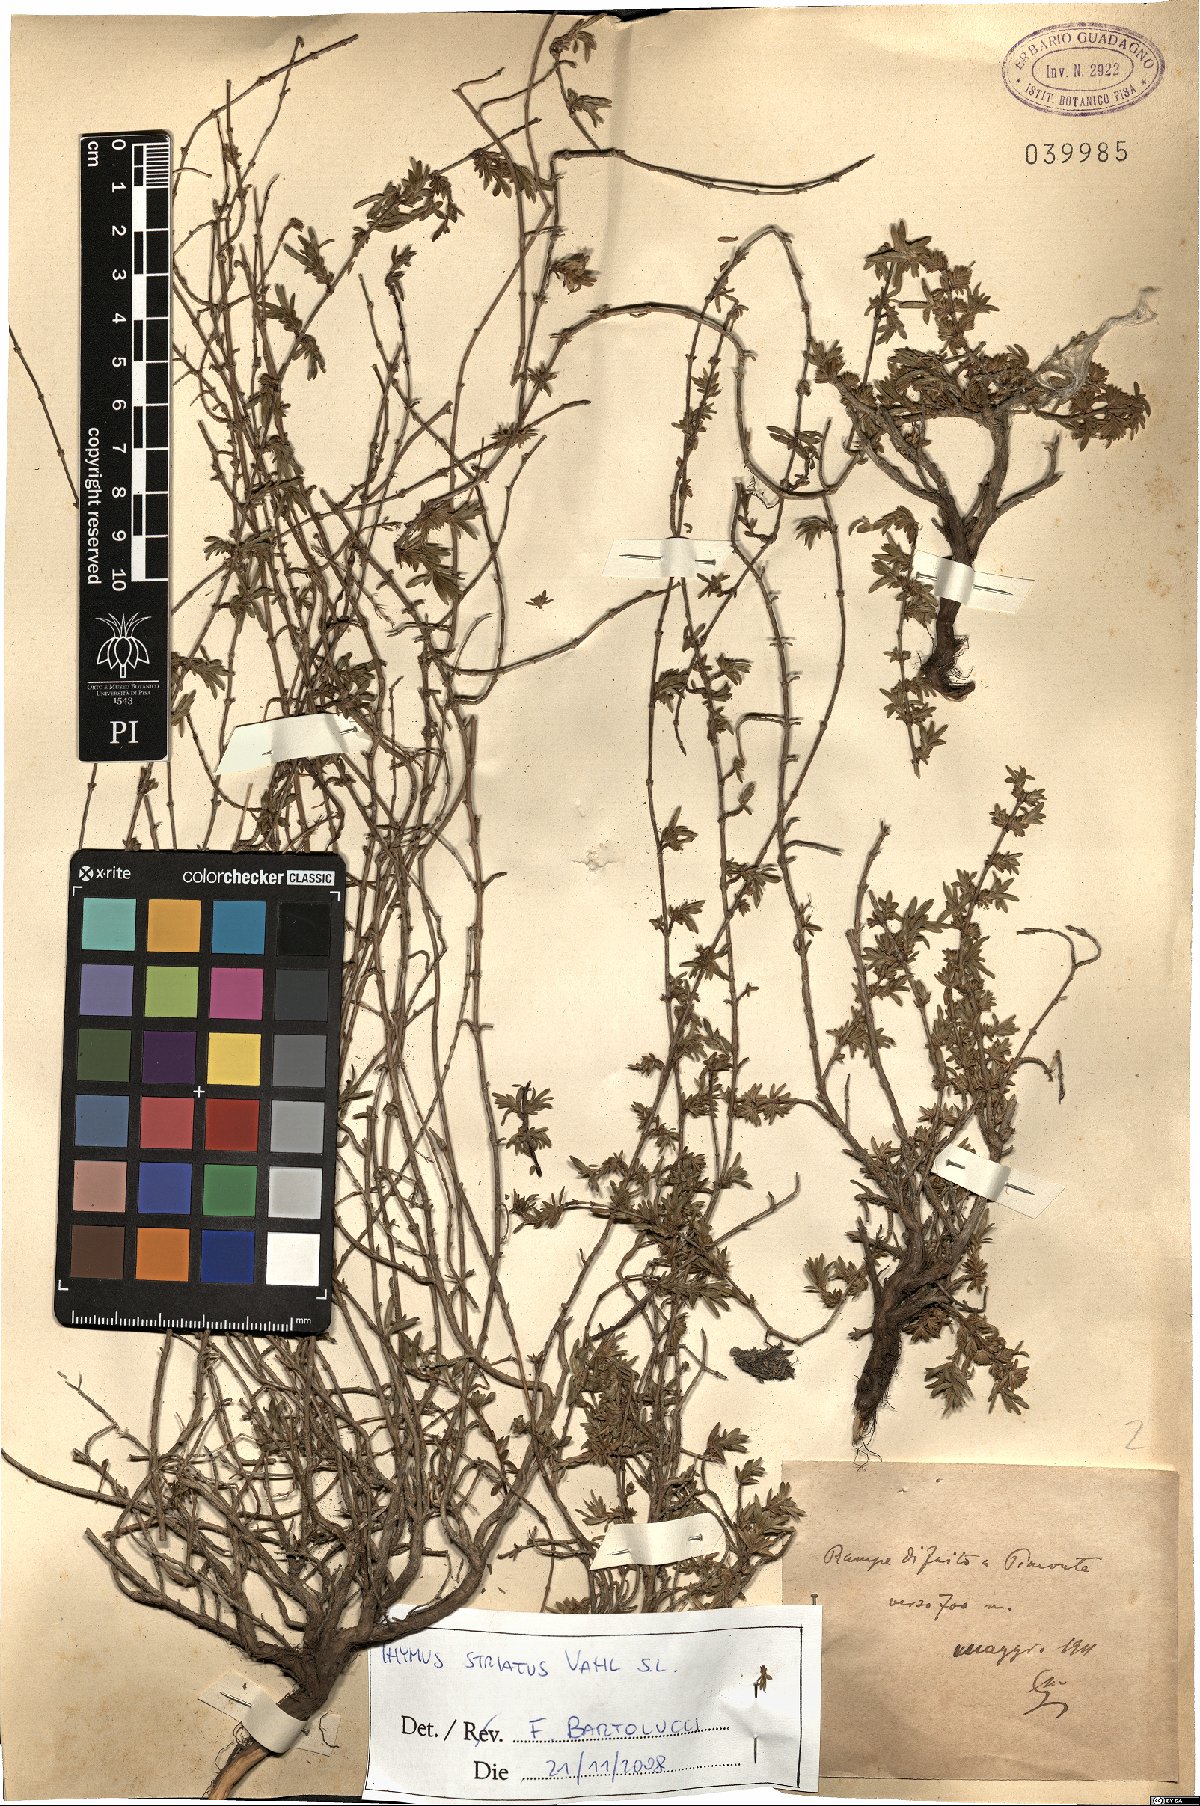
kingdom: Plantae
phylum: Tracheophyta
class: Magnoliopsida
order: Lamiales
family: Lamiaceae
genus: Thymus
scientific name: Thymus striatus
